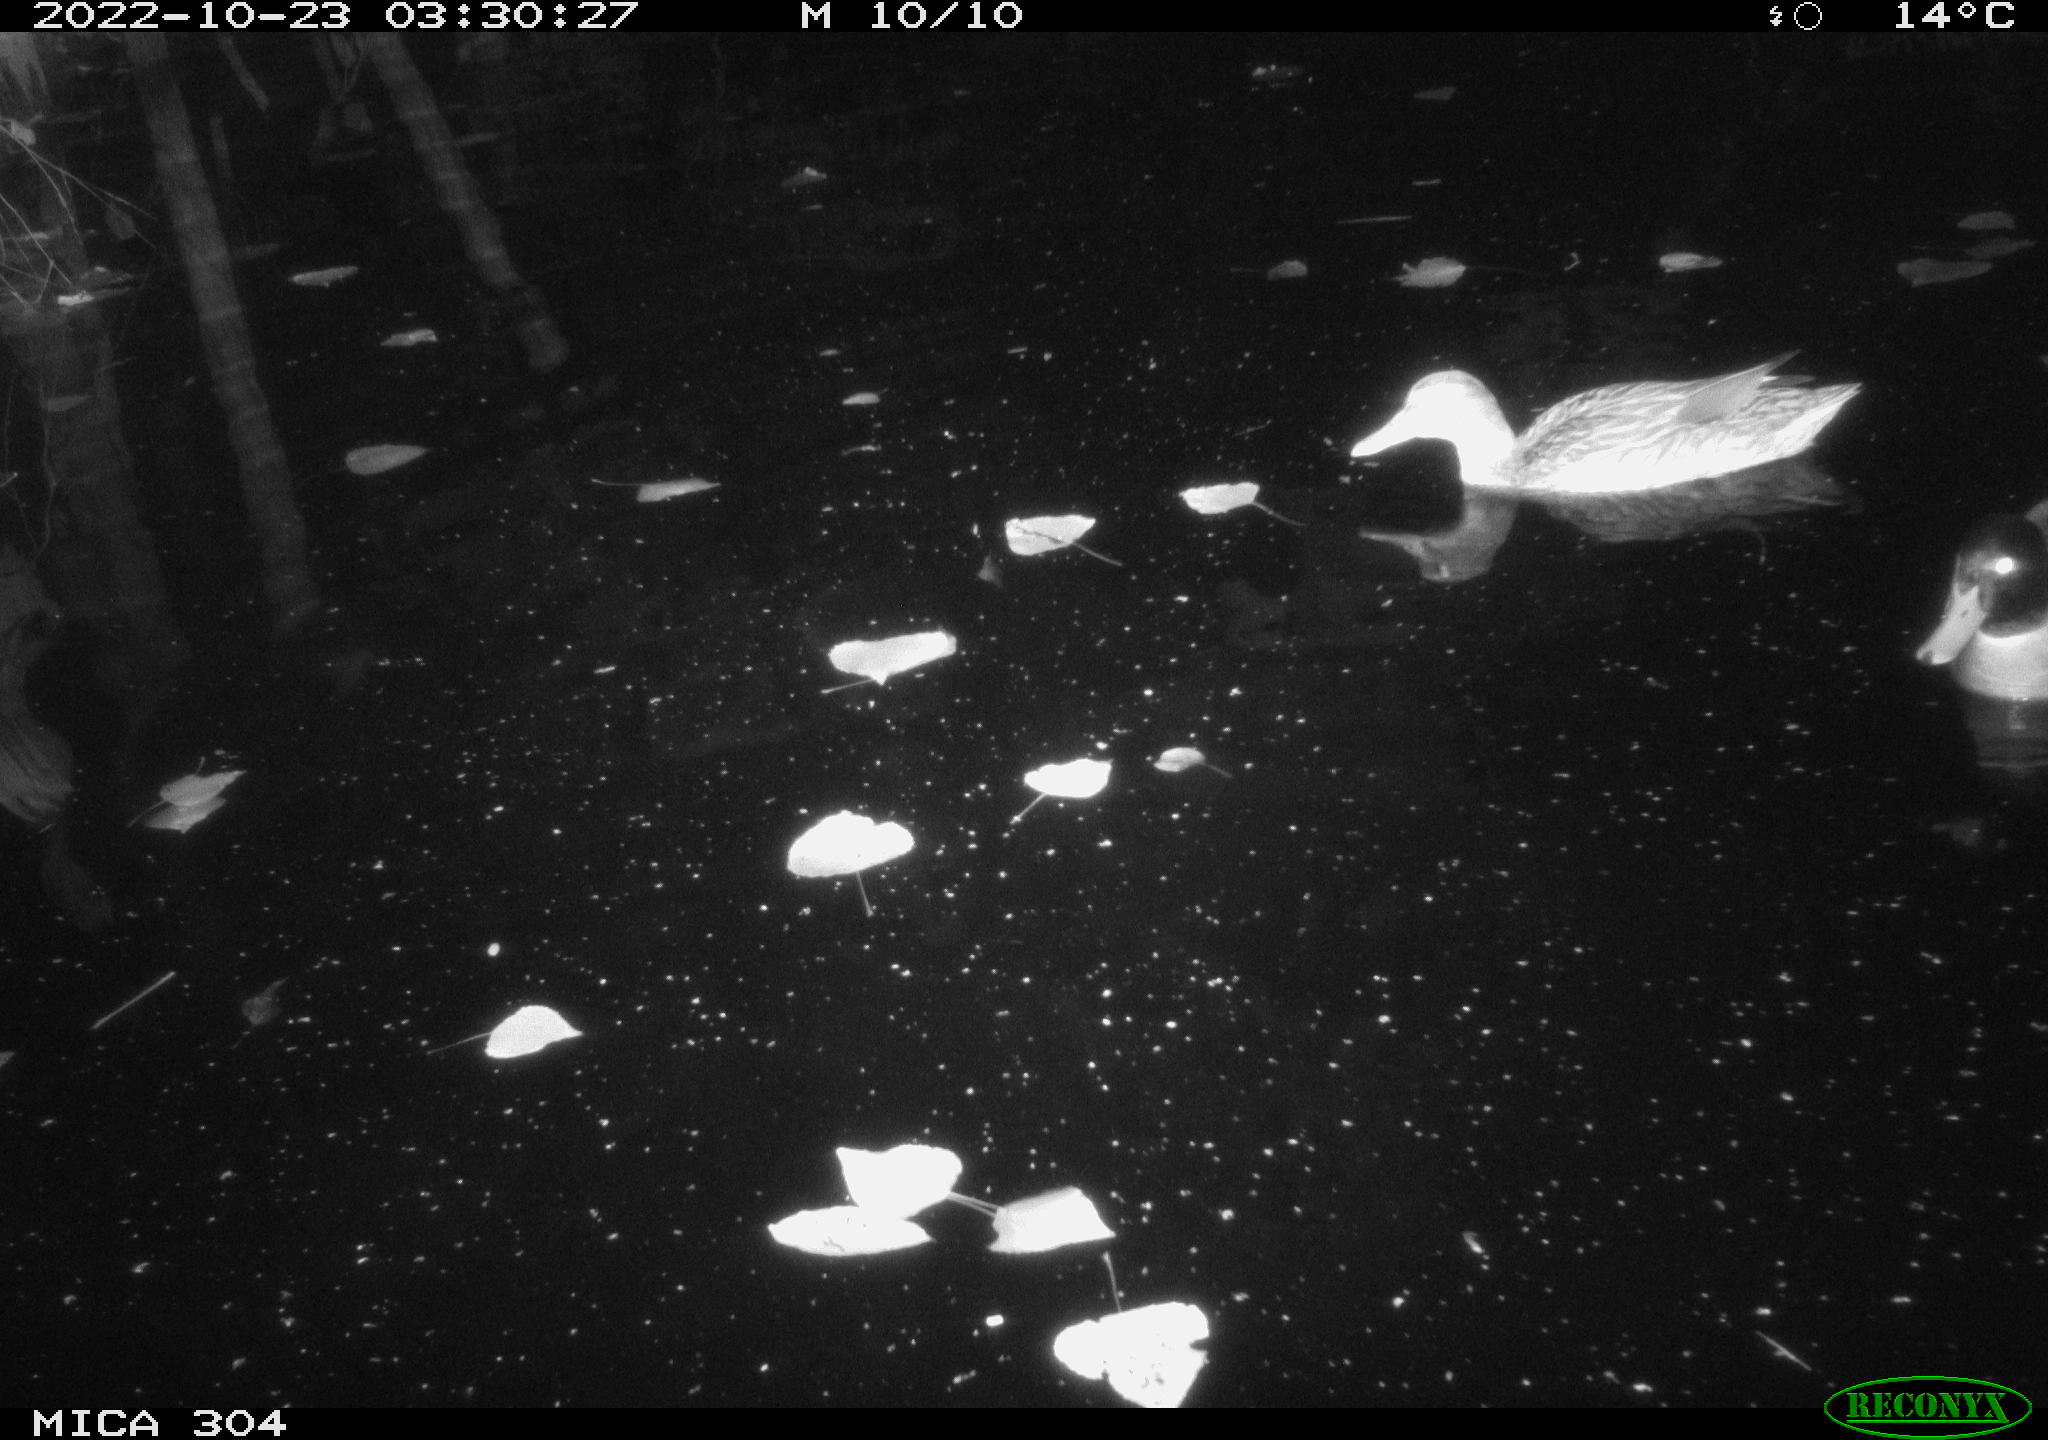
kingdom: Animalia
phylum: Chordata
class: Mammalia
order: Rodentia
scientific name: Rodentia
